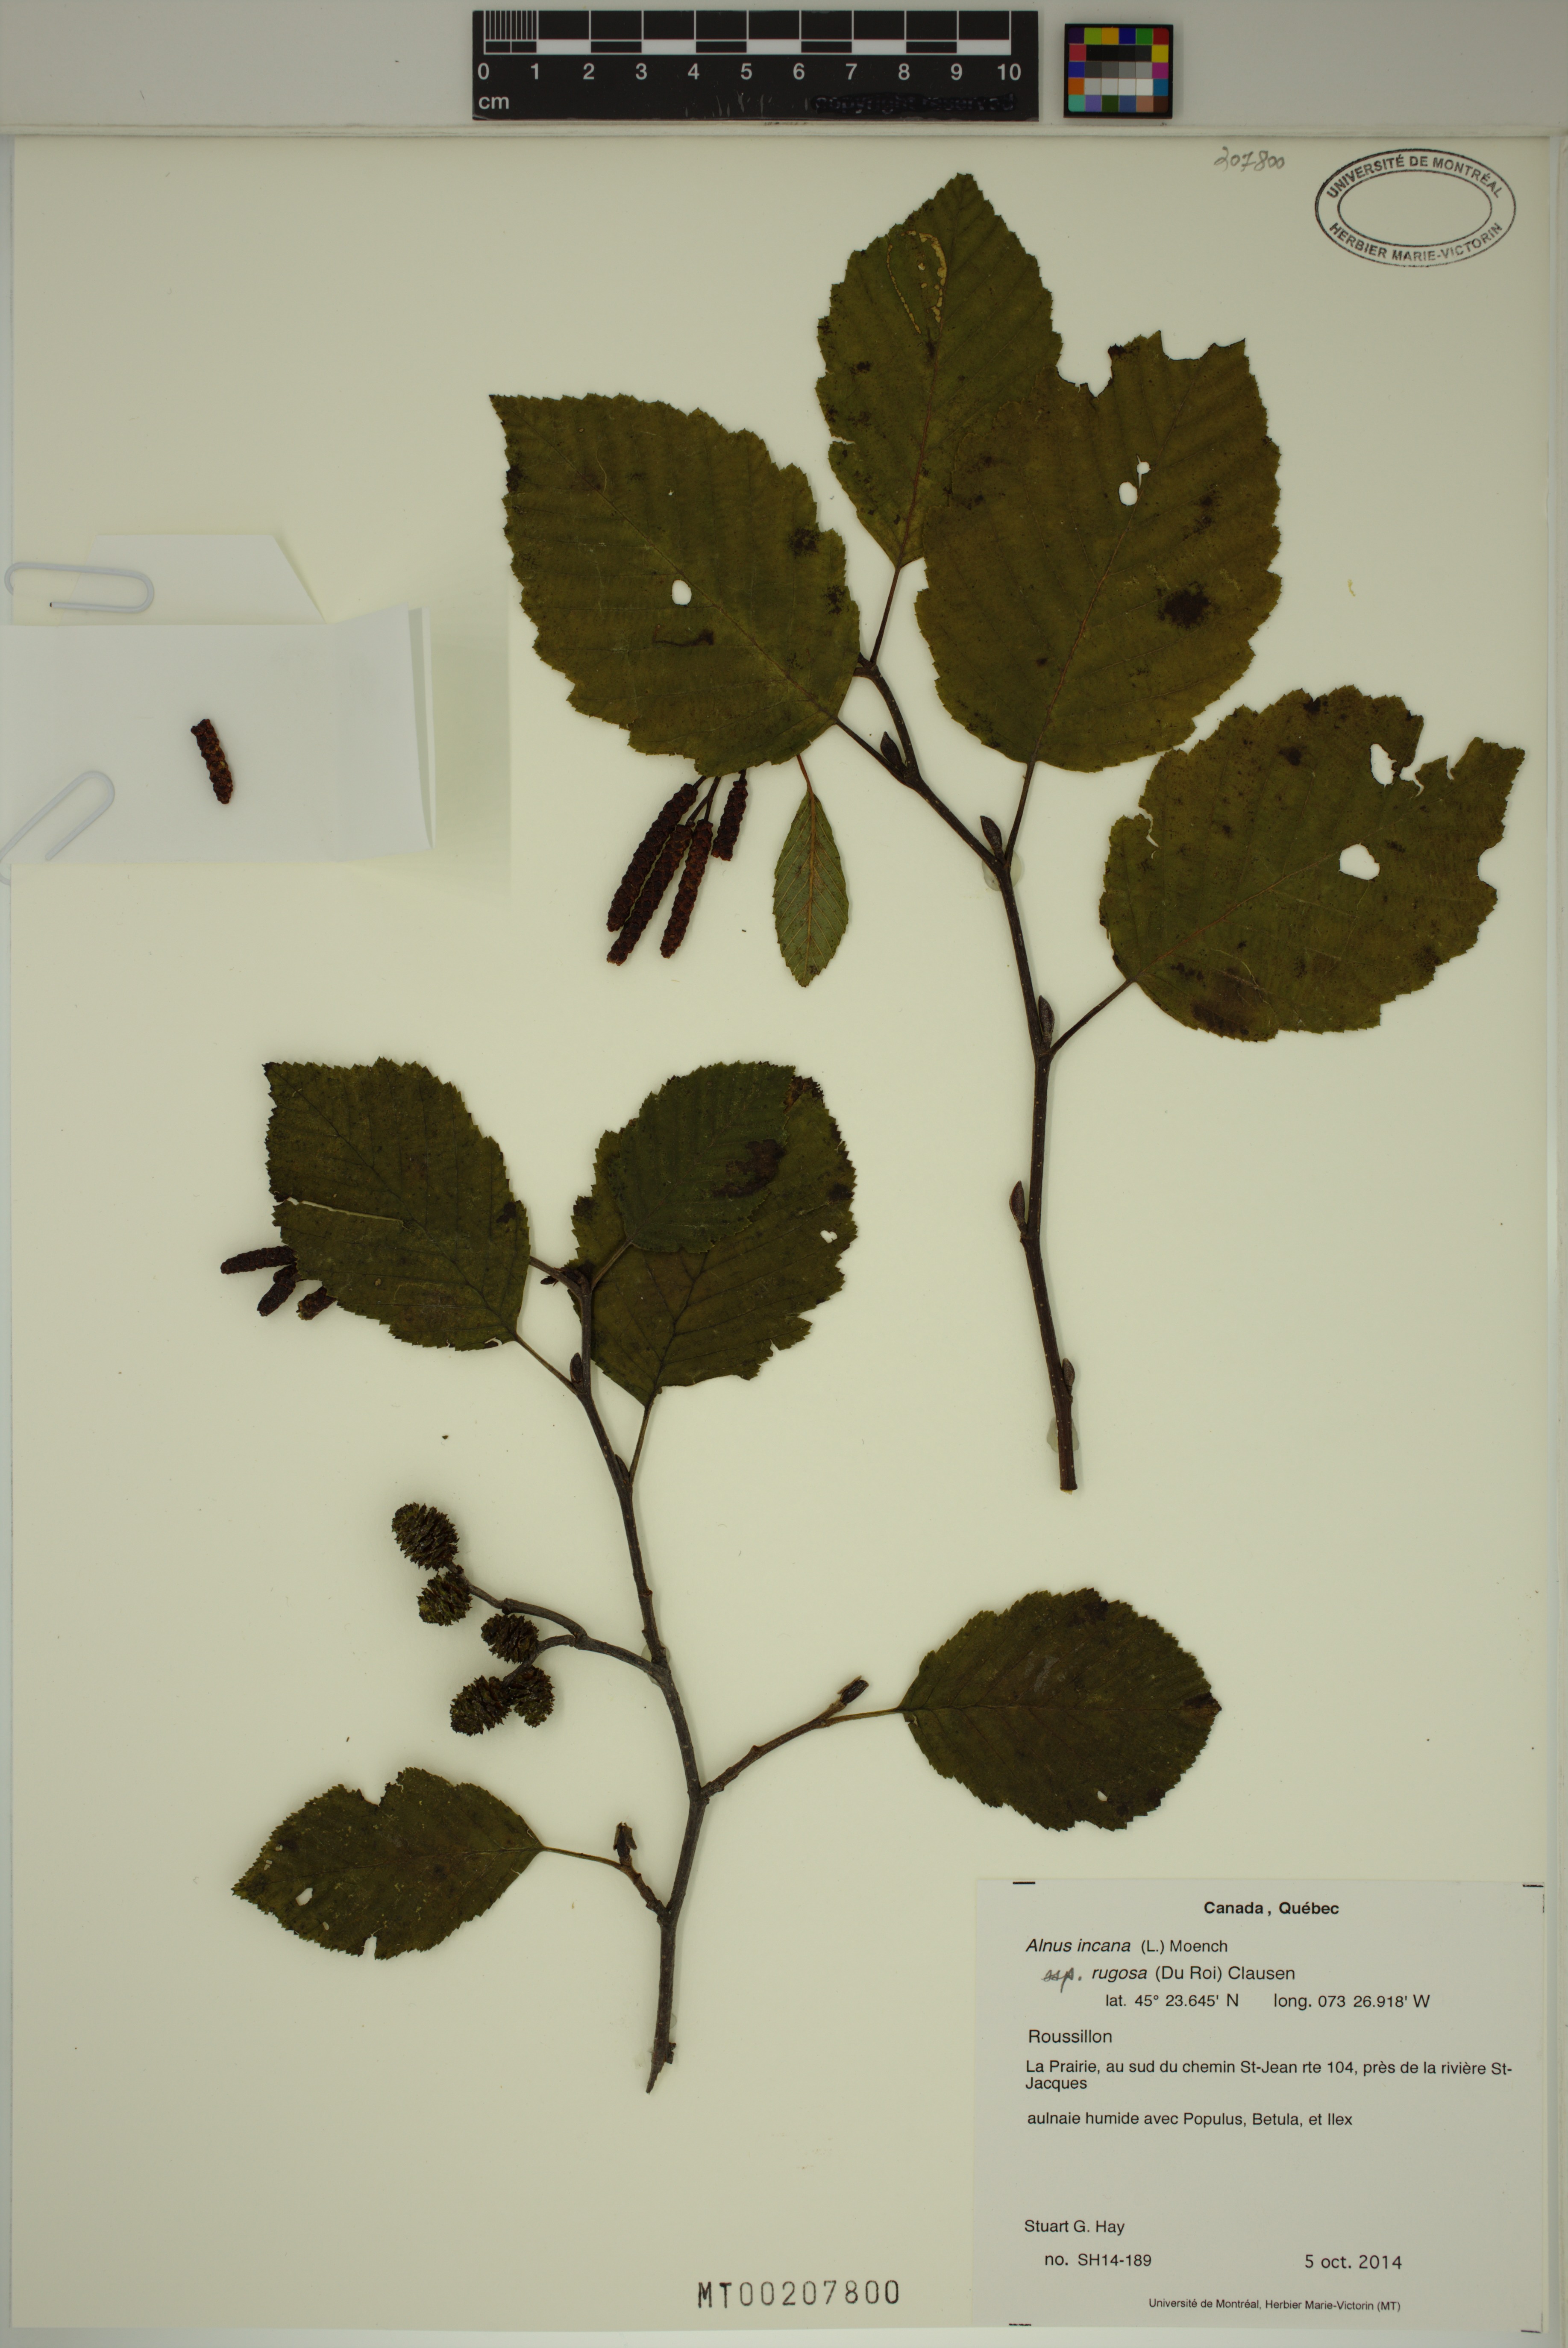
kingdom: Plantae
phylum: Tracheophyta
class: Magnoliopsida
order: Fagales
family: Betulaceae
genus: Alnus
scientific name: Alnus incana
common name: Grey alder
